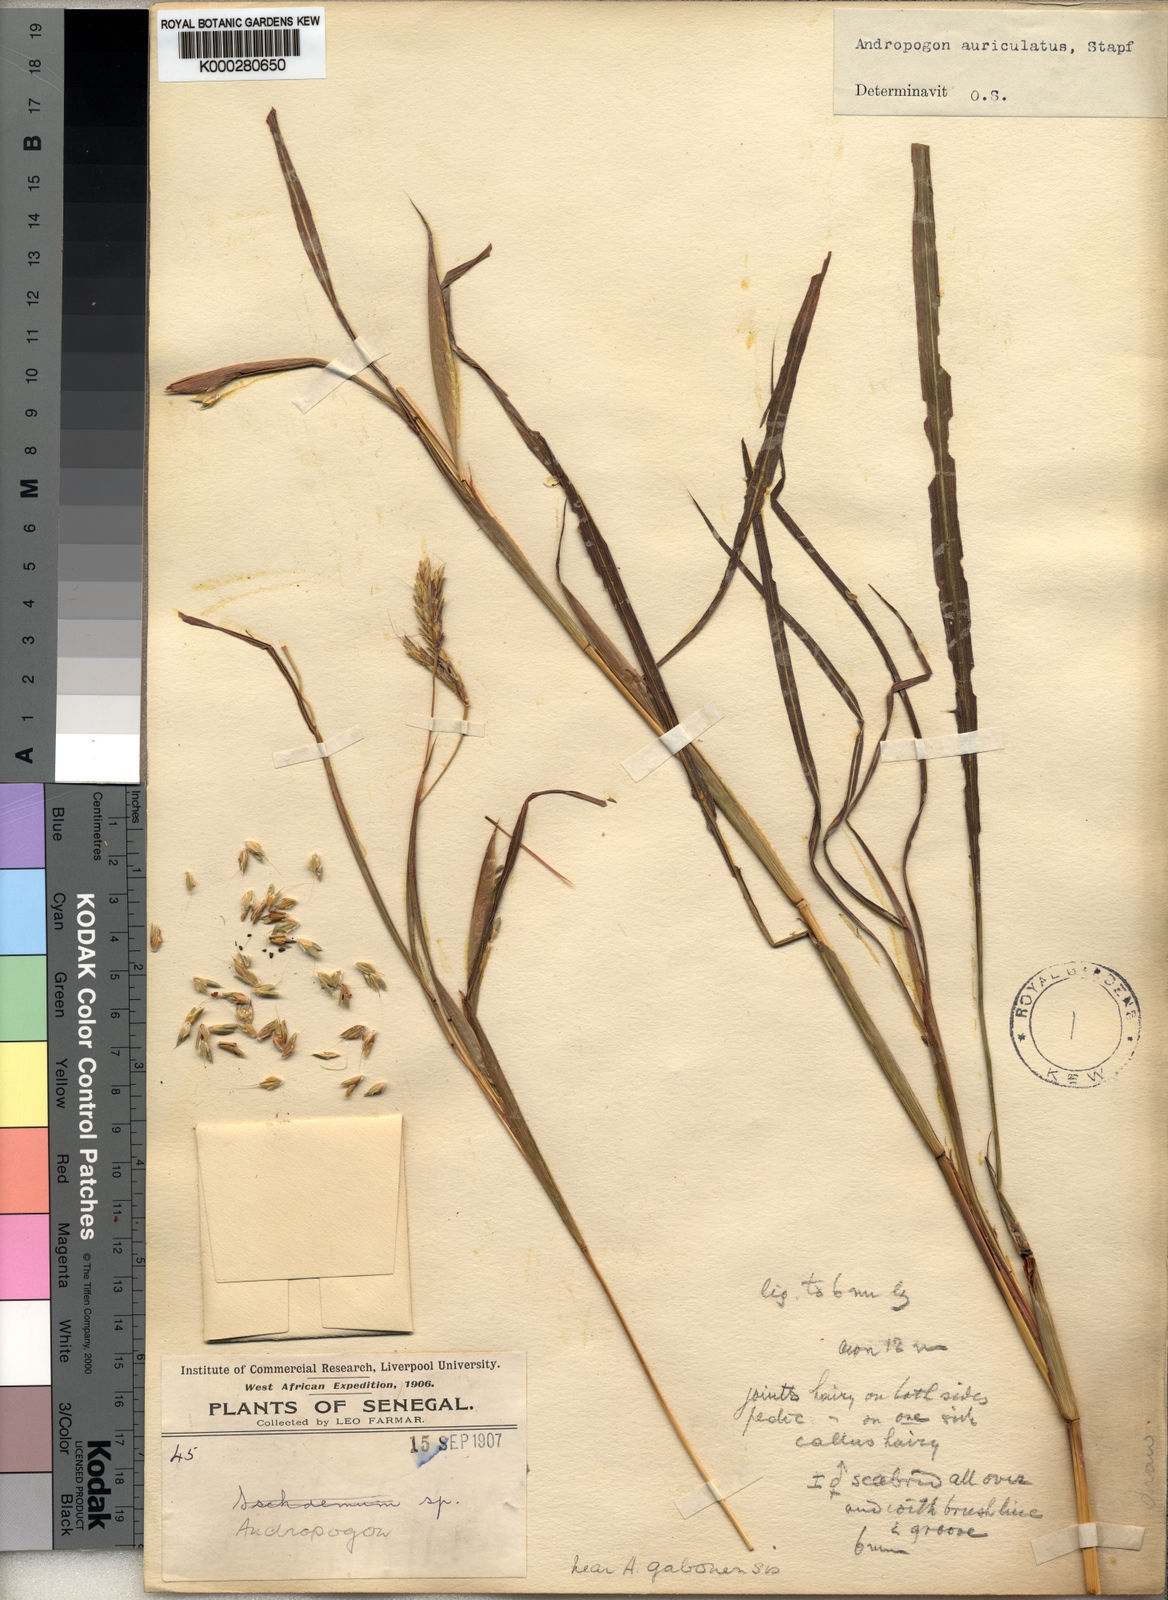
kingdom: Plantae
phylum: Tracheophyta
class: Liliopsida
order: Poales
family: Poaceae
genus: Andropogon
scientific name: Andropogon auriculatus
